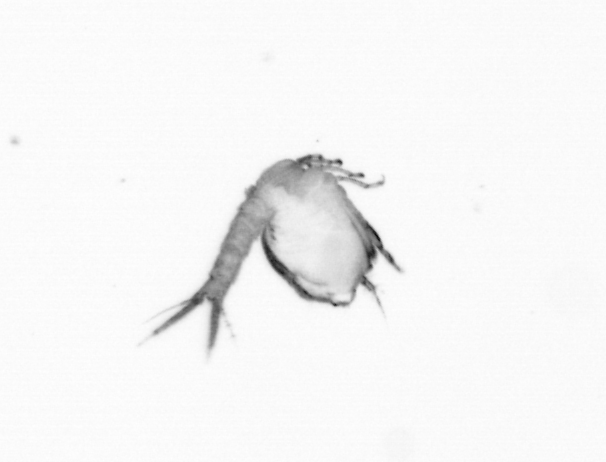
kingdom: Animalia
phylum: Arthropoda
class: Copepoda
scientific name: Copepoda
